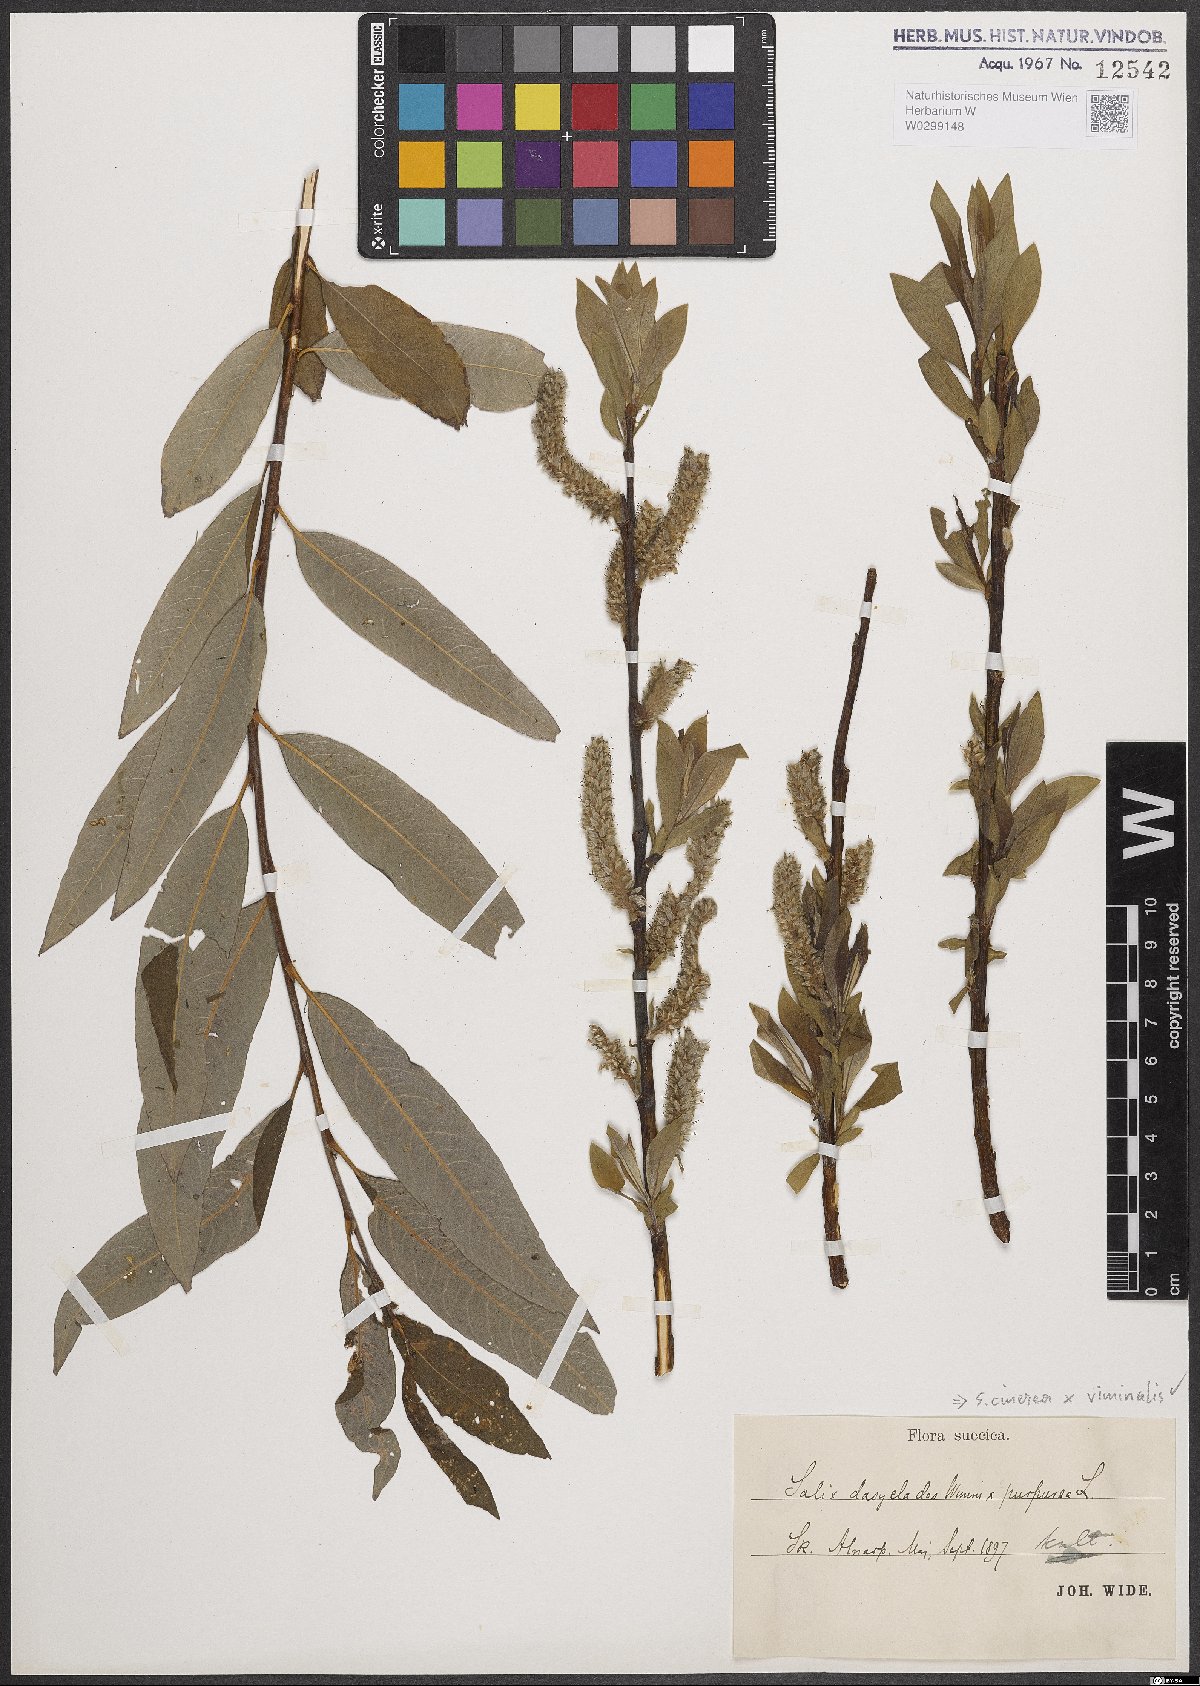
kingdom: Plantae
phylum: Tracheophyta
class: Magnoliopsida
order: Malpighiales
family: Salicaceae
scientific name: Salicaceae
